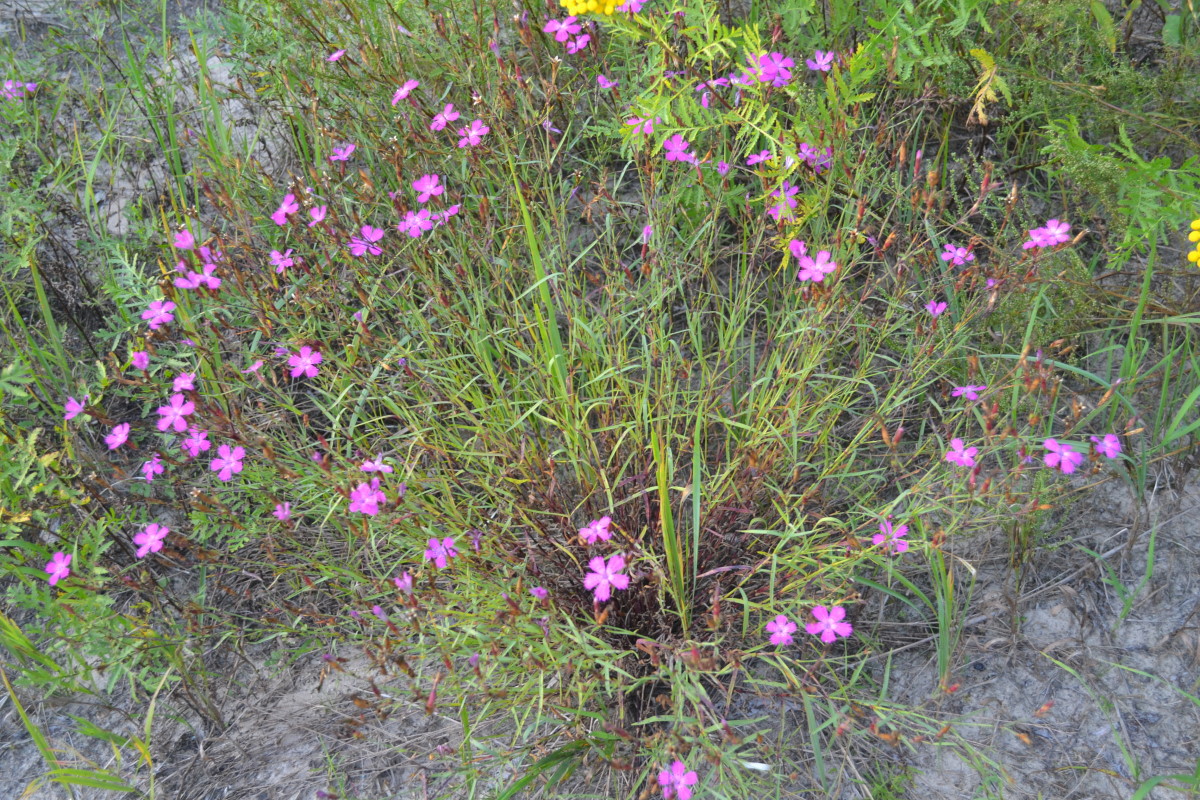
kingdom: Plantae
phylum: Tracheophyta
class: Magnoliopsida
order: Caryophyllales
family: Caryophyllaceae
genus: Dianthus
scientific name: Dianthus deltoides
